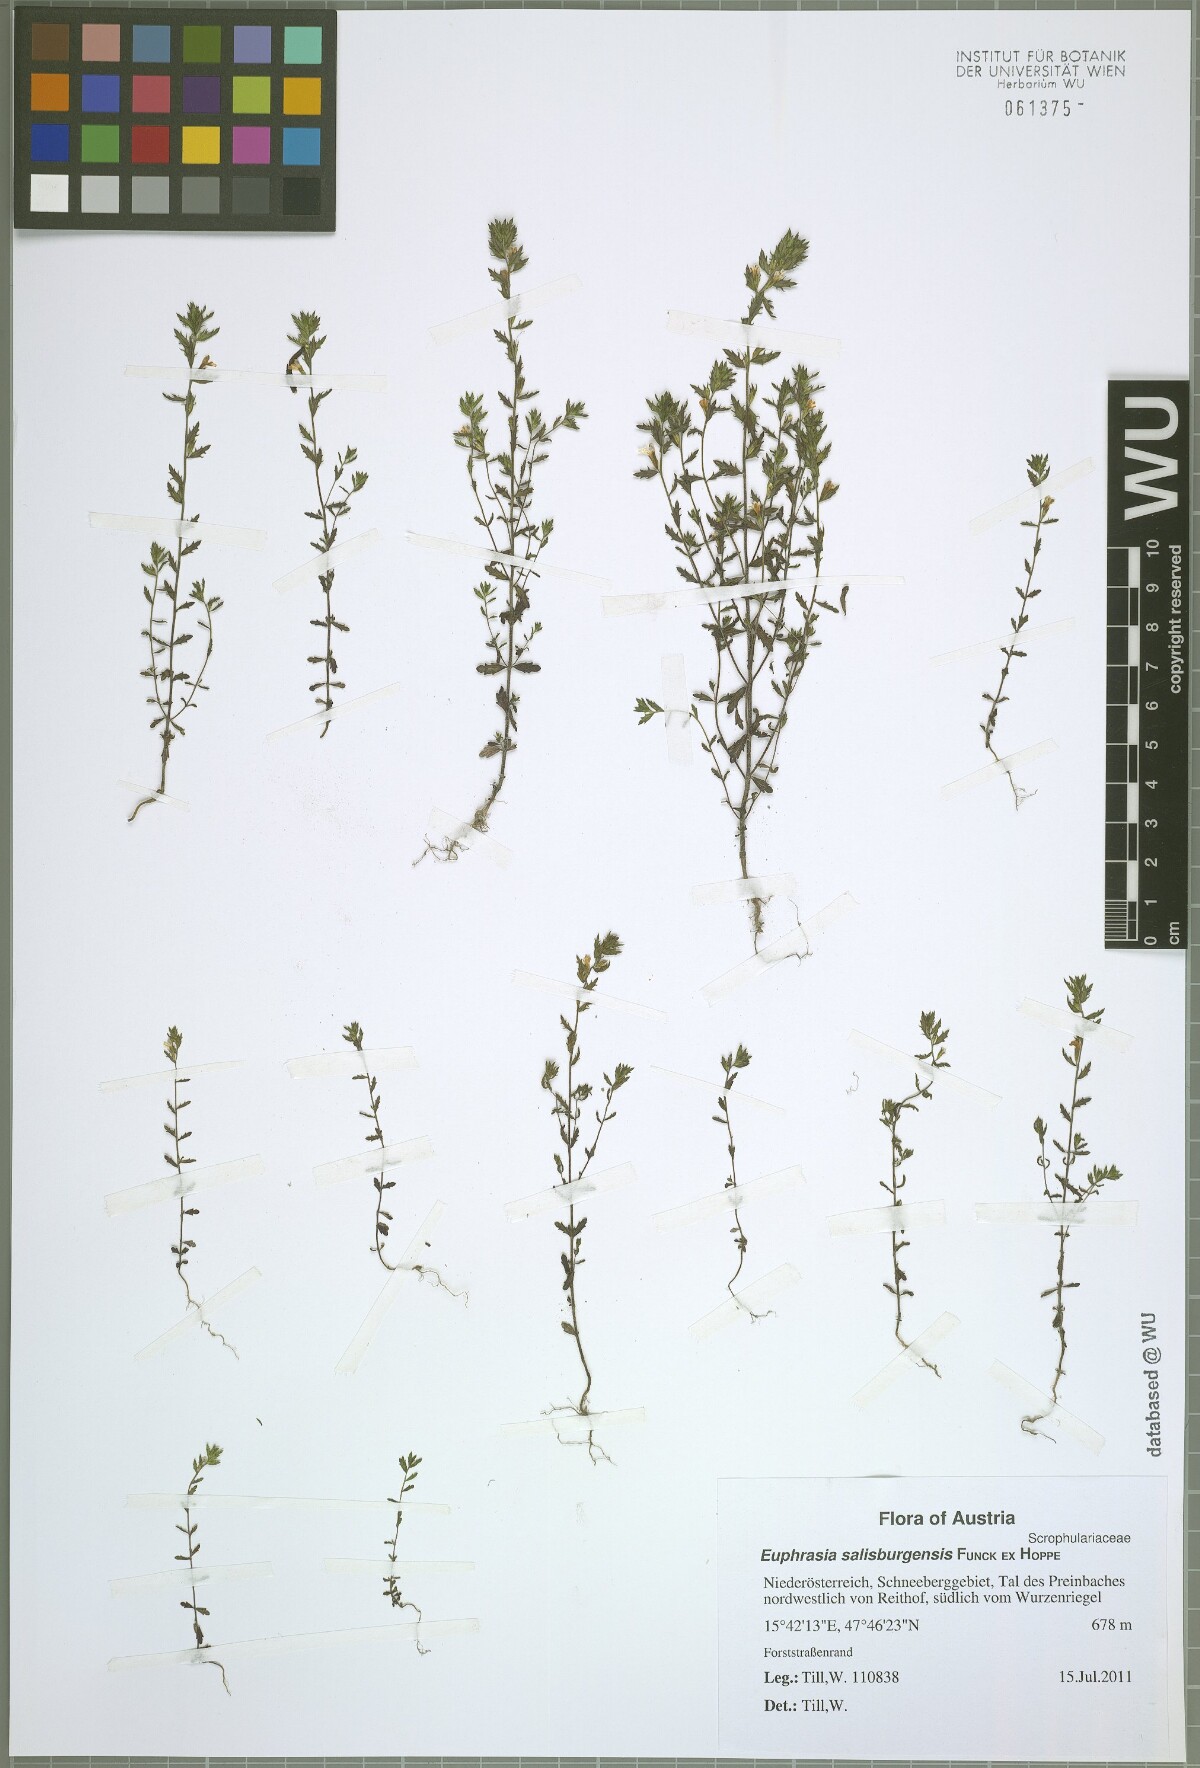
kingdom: Plantae
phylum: Tracheophyta
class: Magnoliopsida
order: Lamiales
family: Orobanchaceae
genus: Euphrasia
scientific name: Euphrasia salisburgensis
